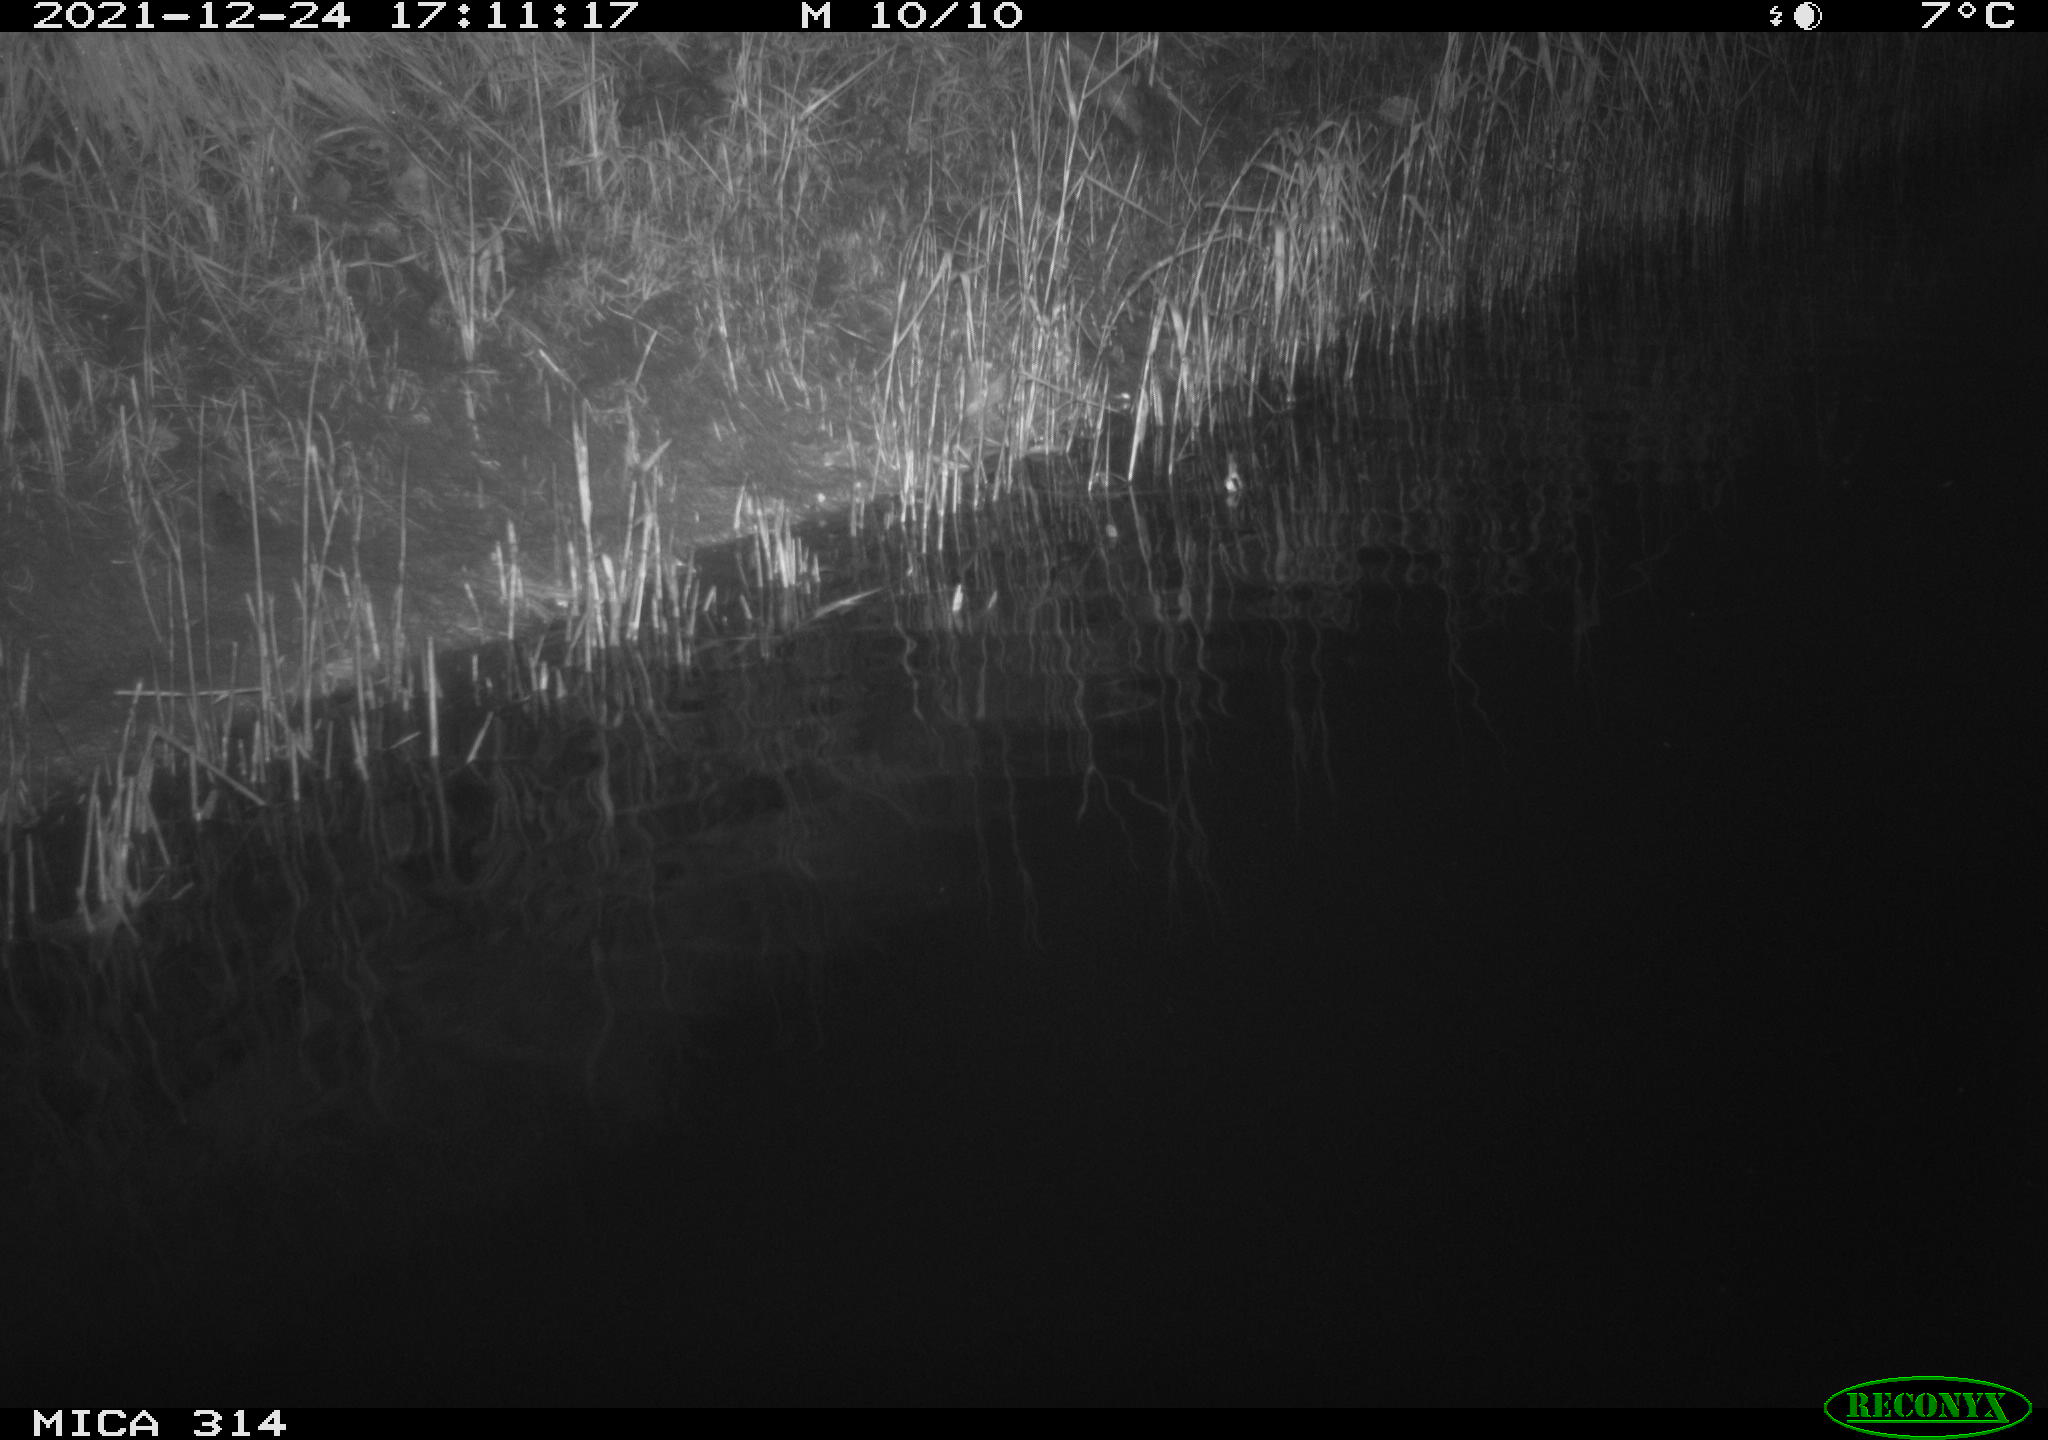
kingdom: Animalia
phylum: Chordata
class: Aves
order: Gruiformes
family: Rallidae
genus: Gallinula
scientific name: Gallinula chloropus
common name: Common moorhen
